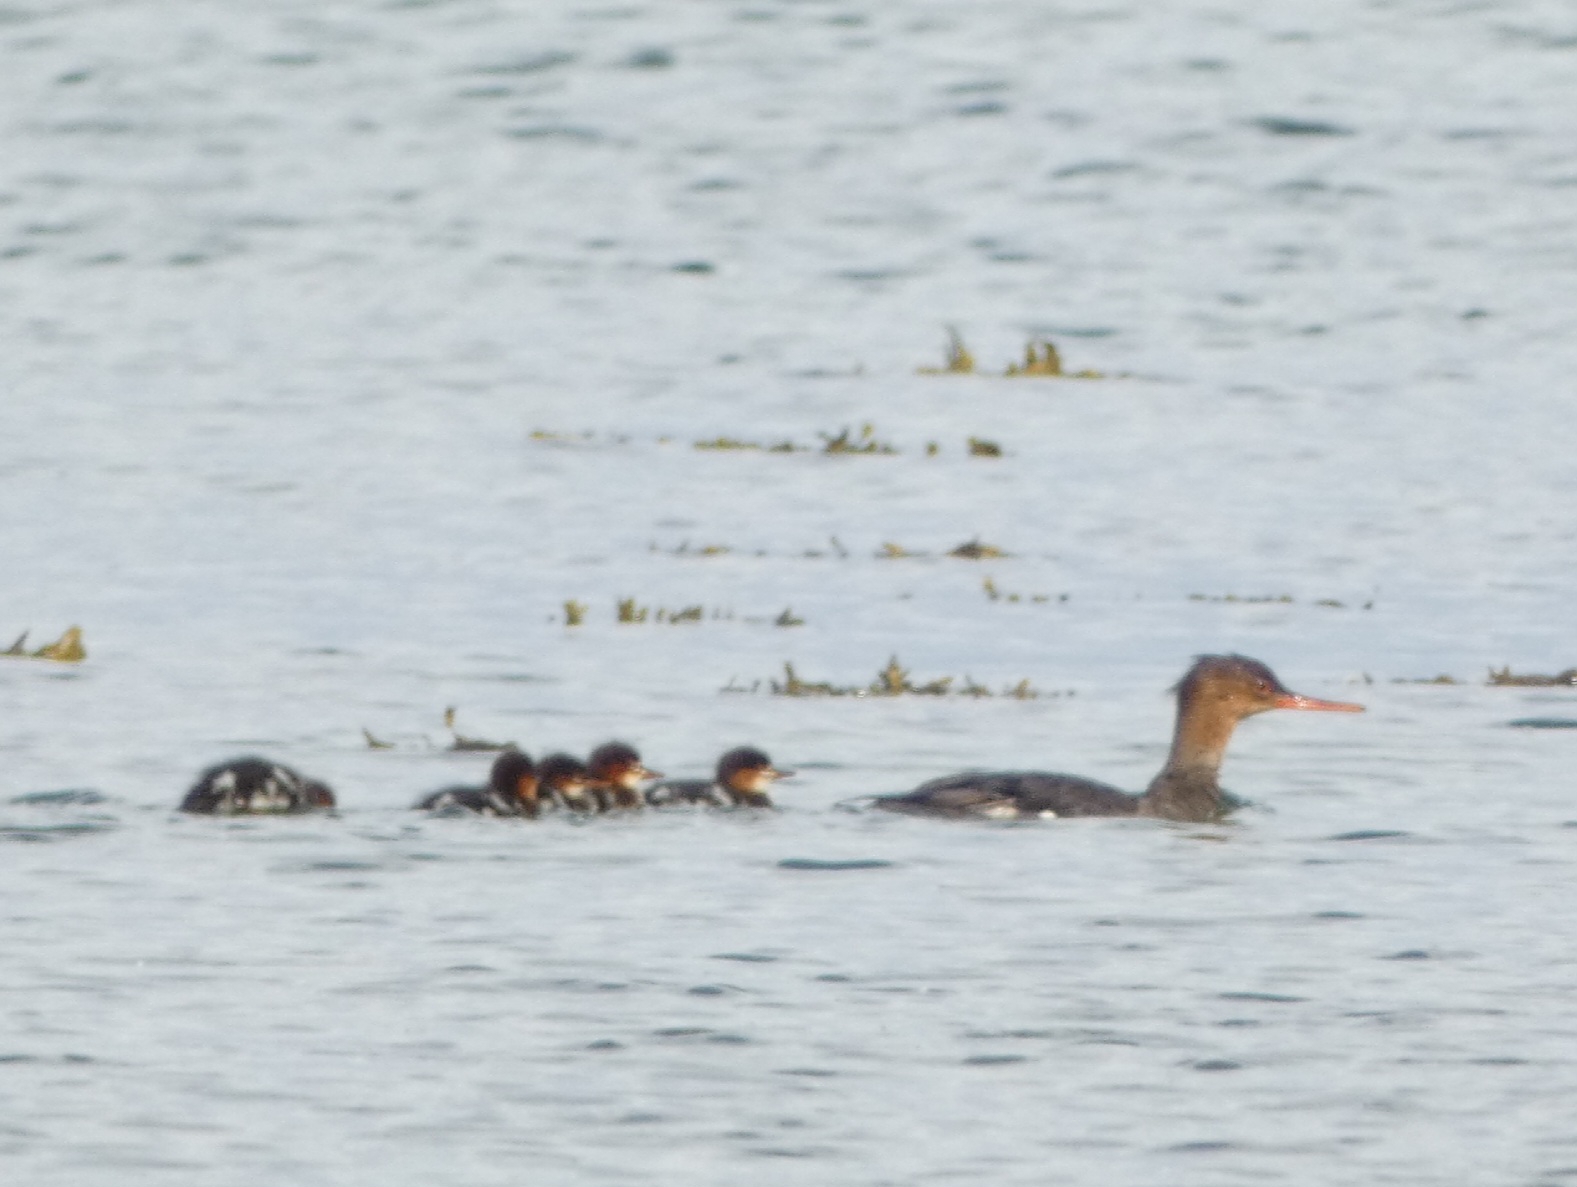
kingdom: Animalia
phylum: Chordata
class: Aves
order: Anseriformes
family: Anatidae
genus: Mergus
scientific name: Mergus serrator
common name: Toppet skallesluger
